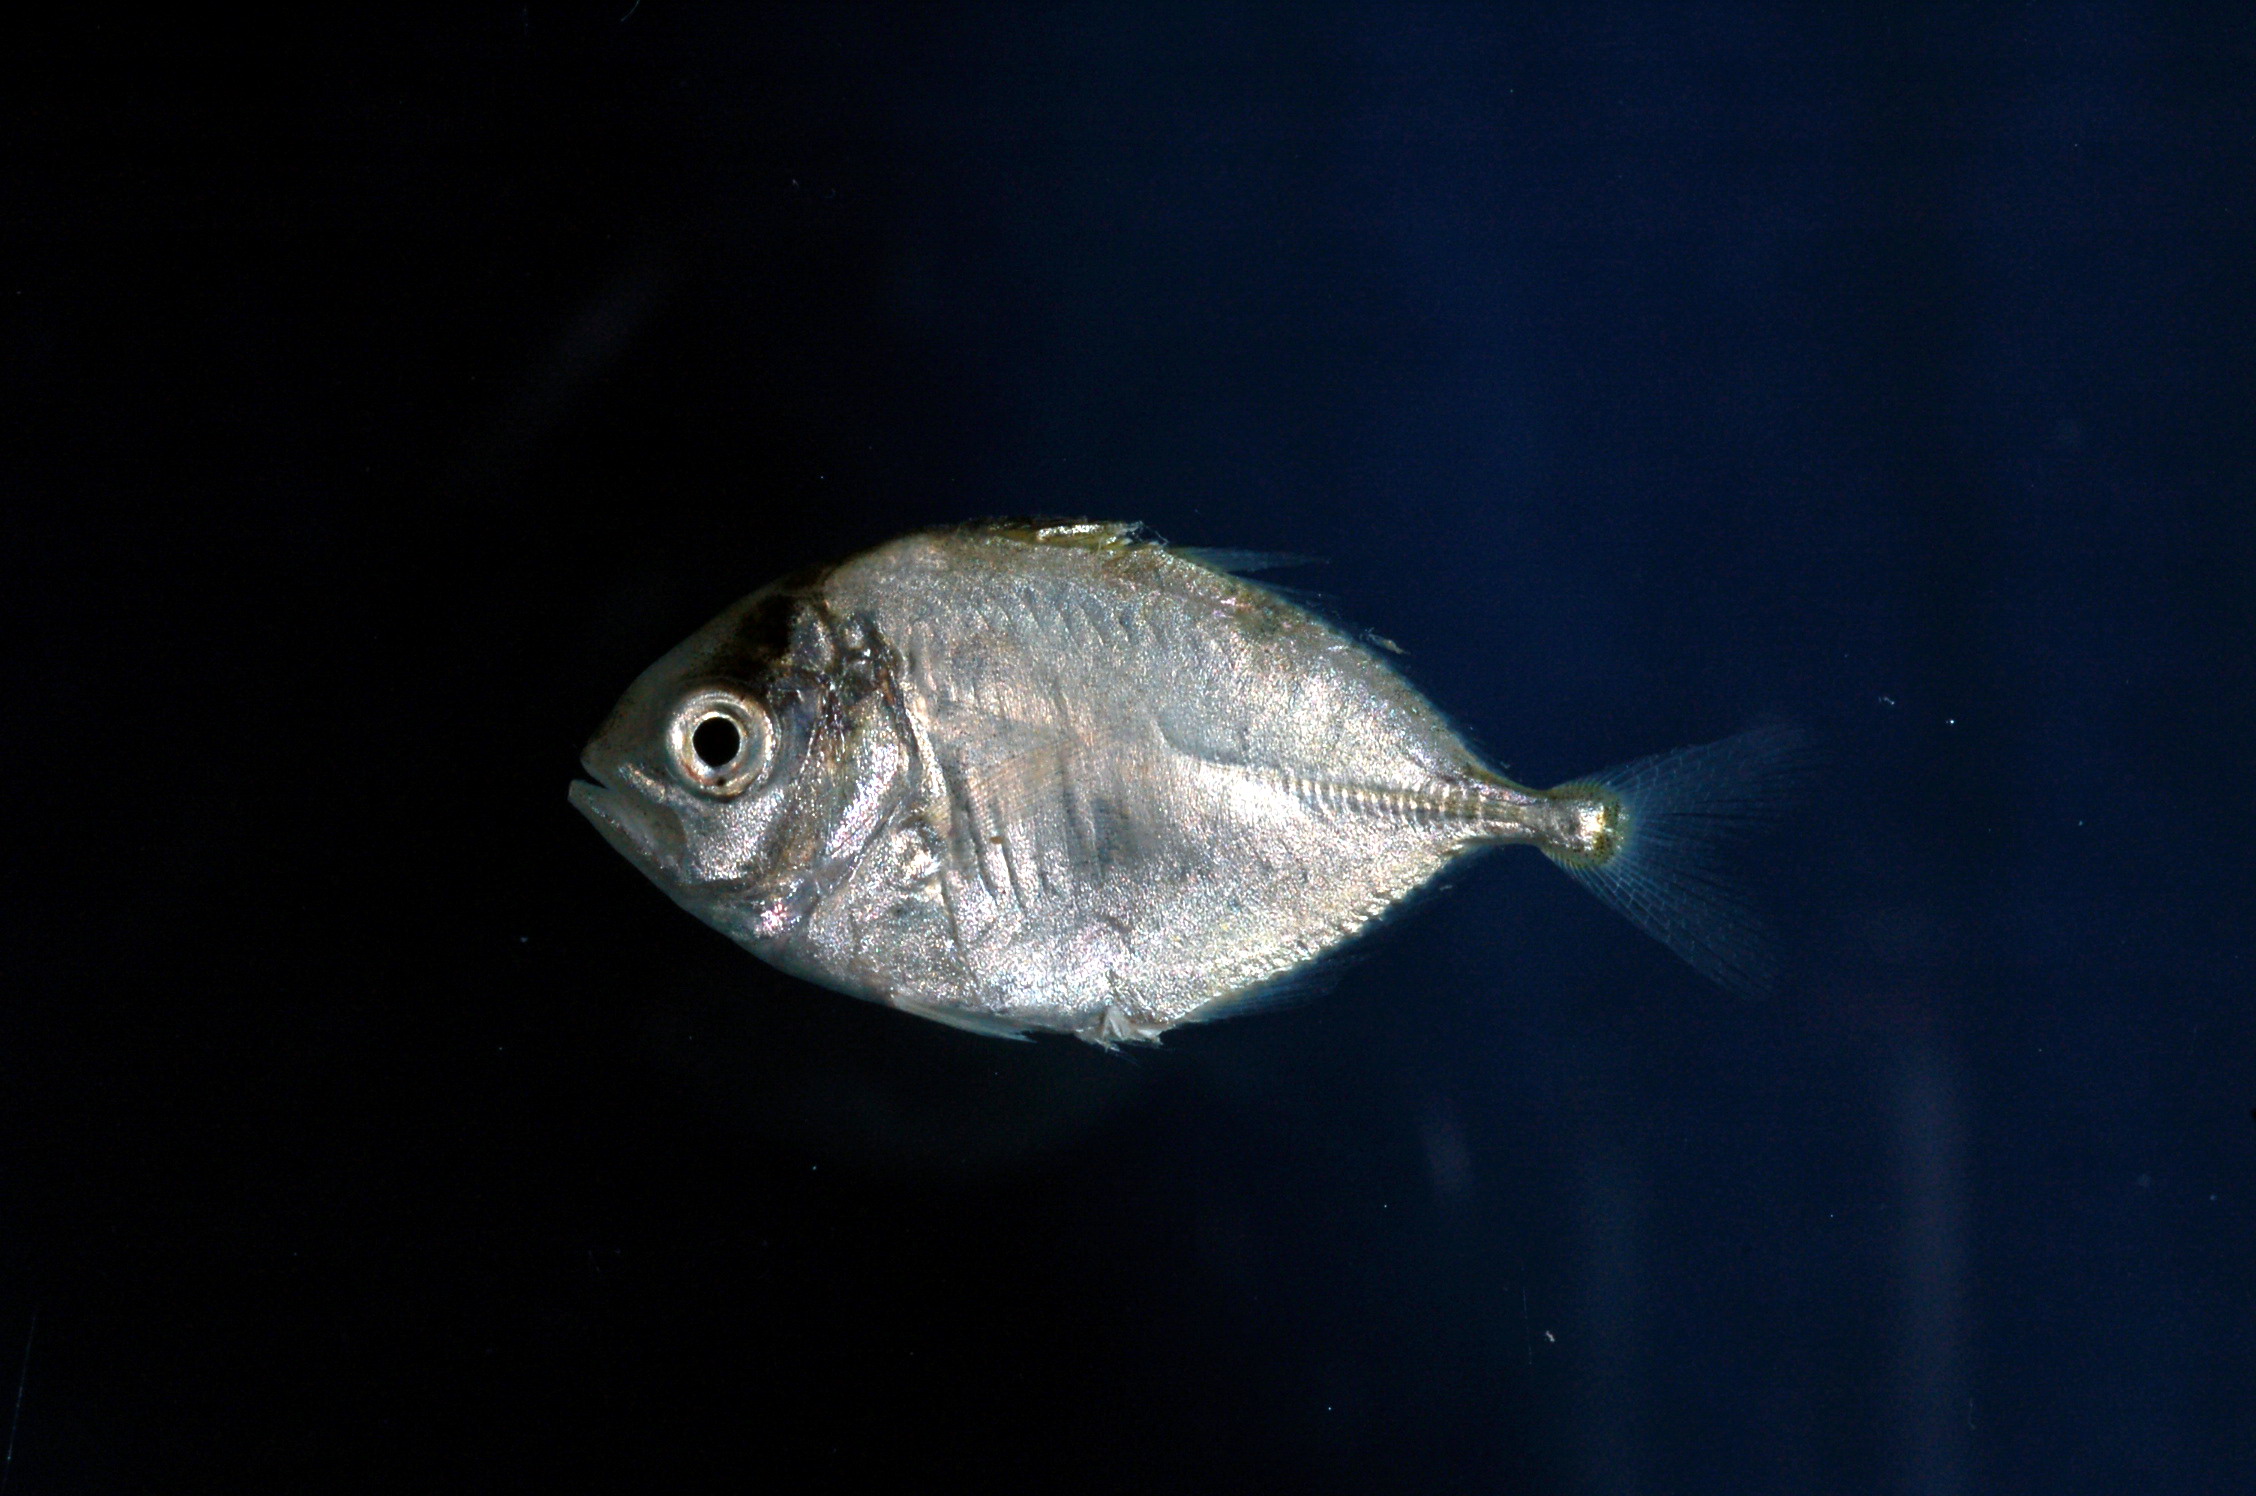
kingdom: Animalia
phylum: Chordata
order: Perciformes
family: Carangidae
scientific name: Carangidae
